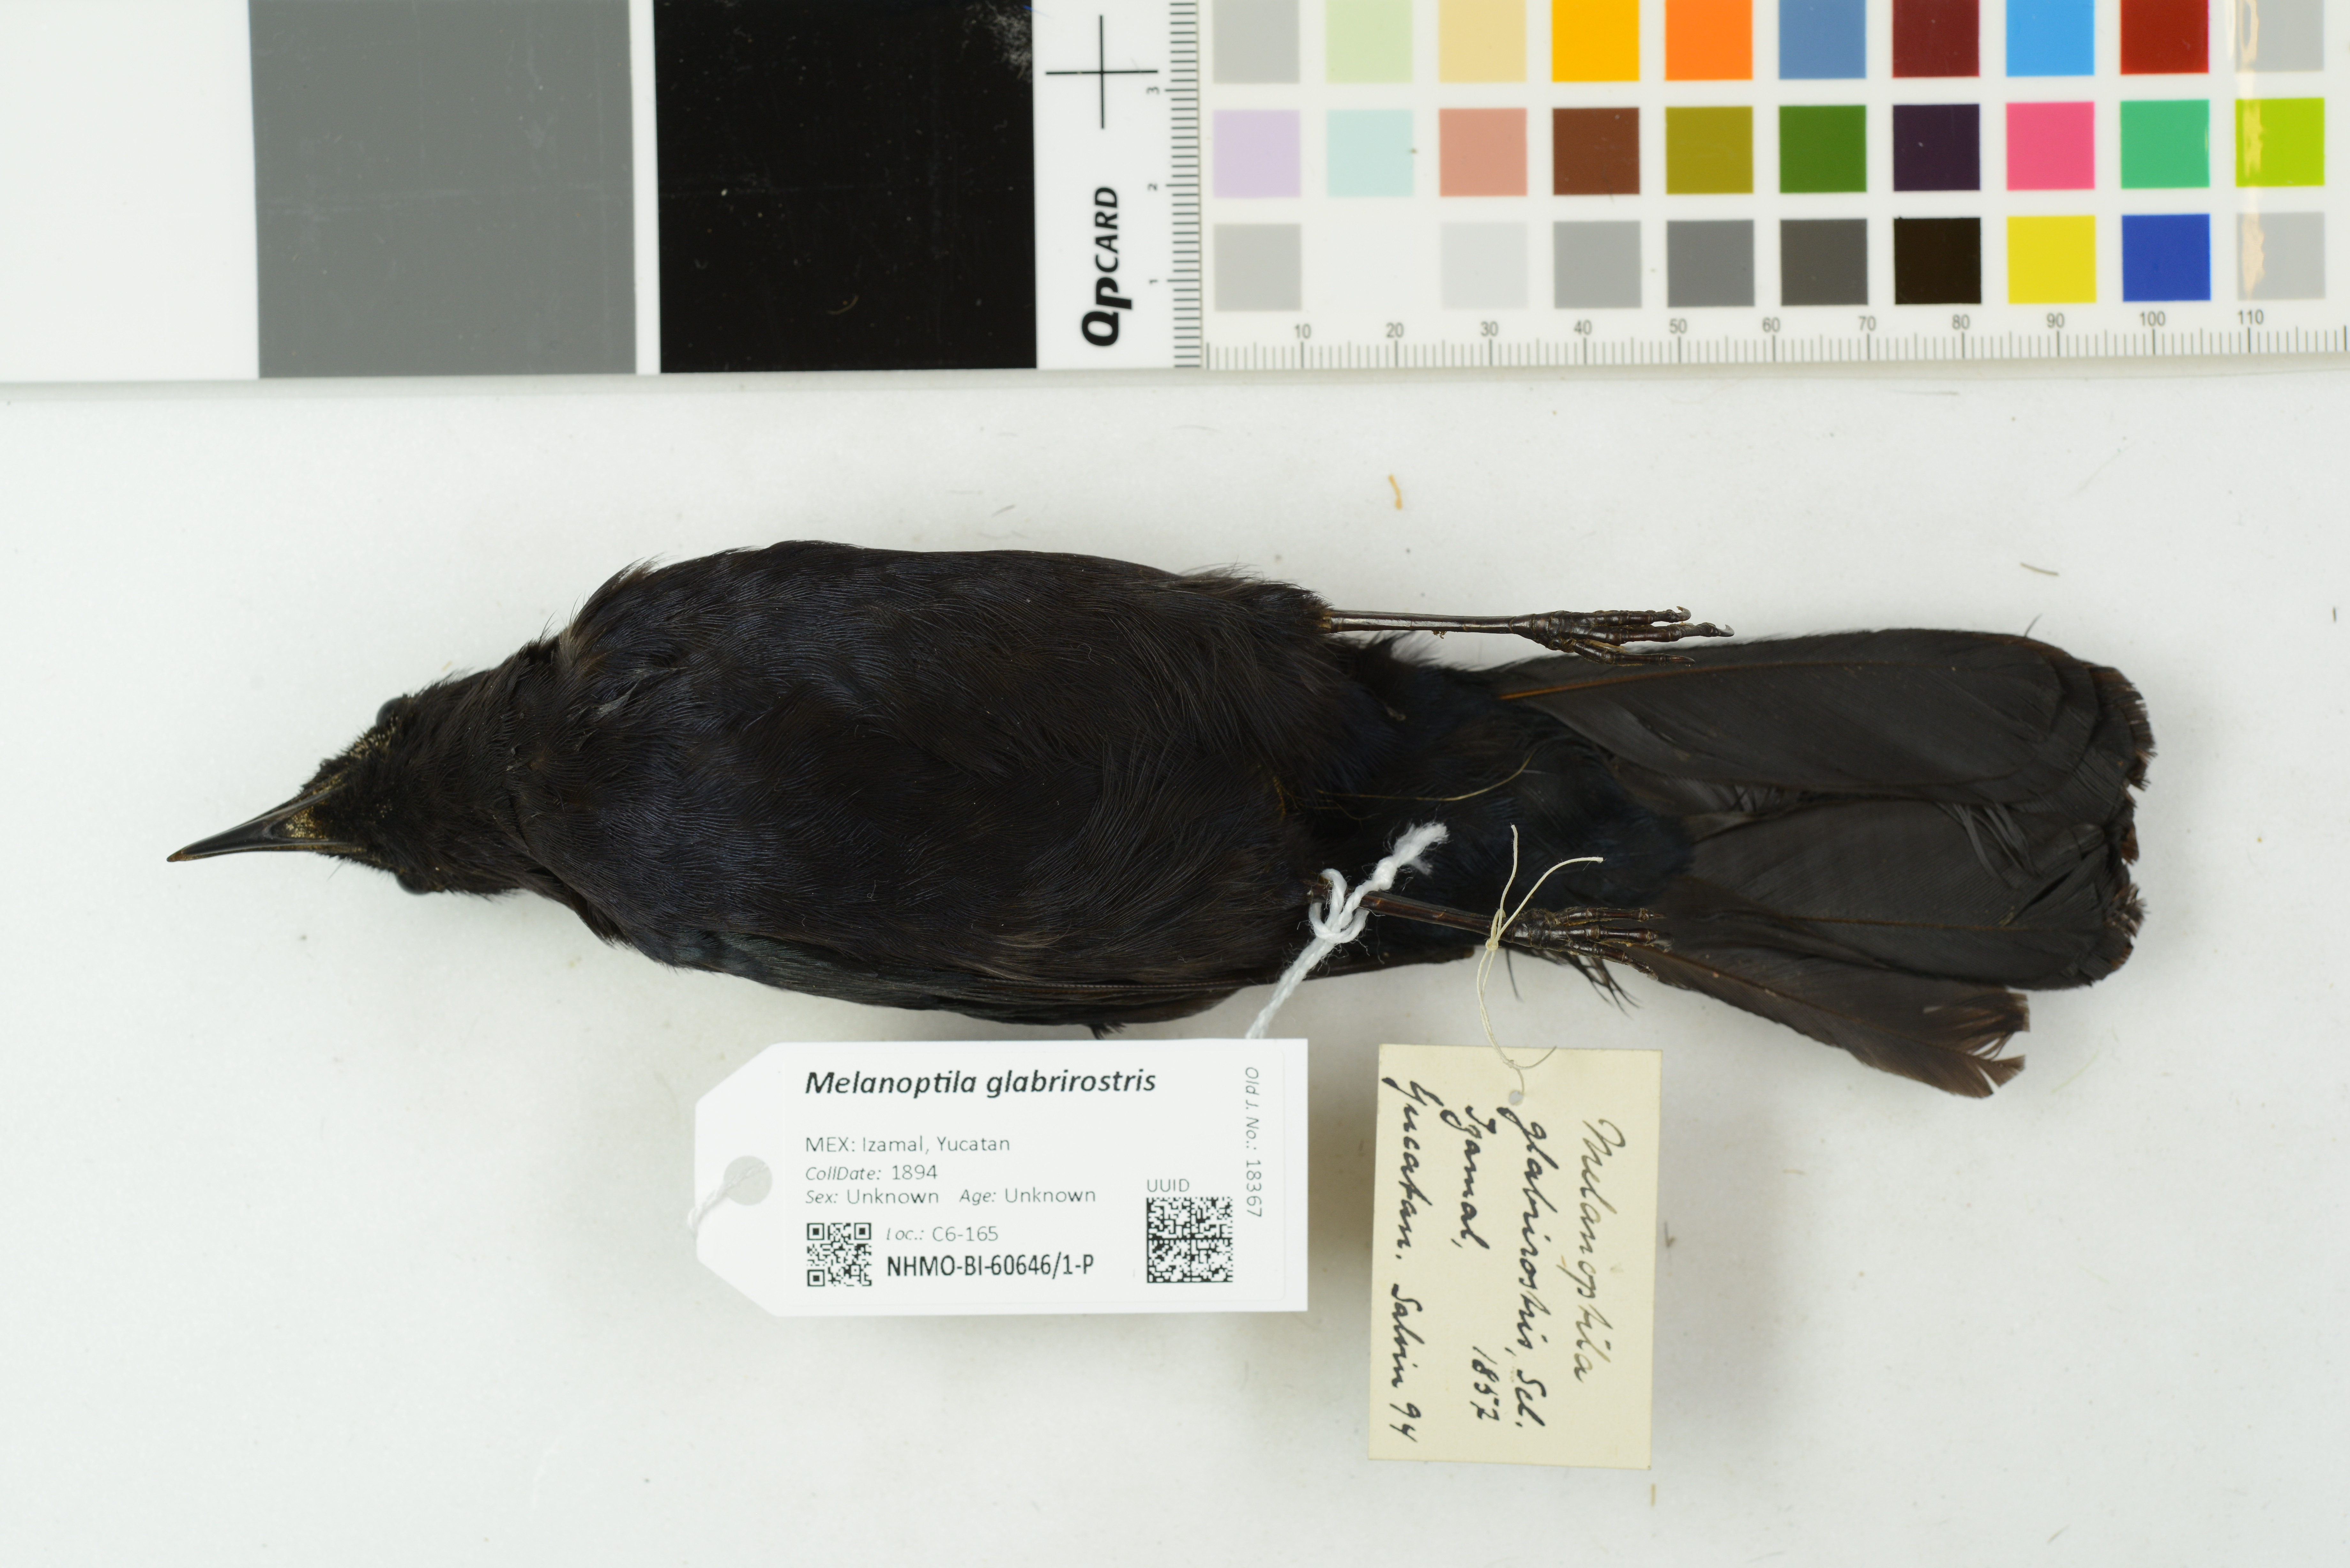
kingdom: Animalia
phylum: Chordata
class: Aves
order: Passeriformes
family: Mimidae
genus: Melanoptila
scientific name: Melanoptila glabrirostris
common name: Black catbird
